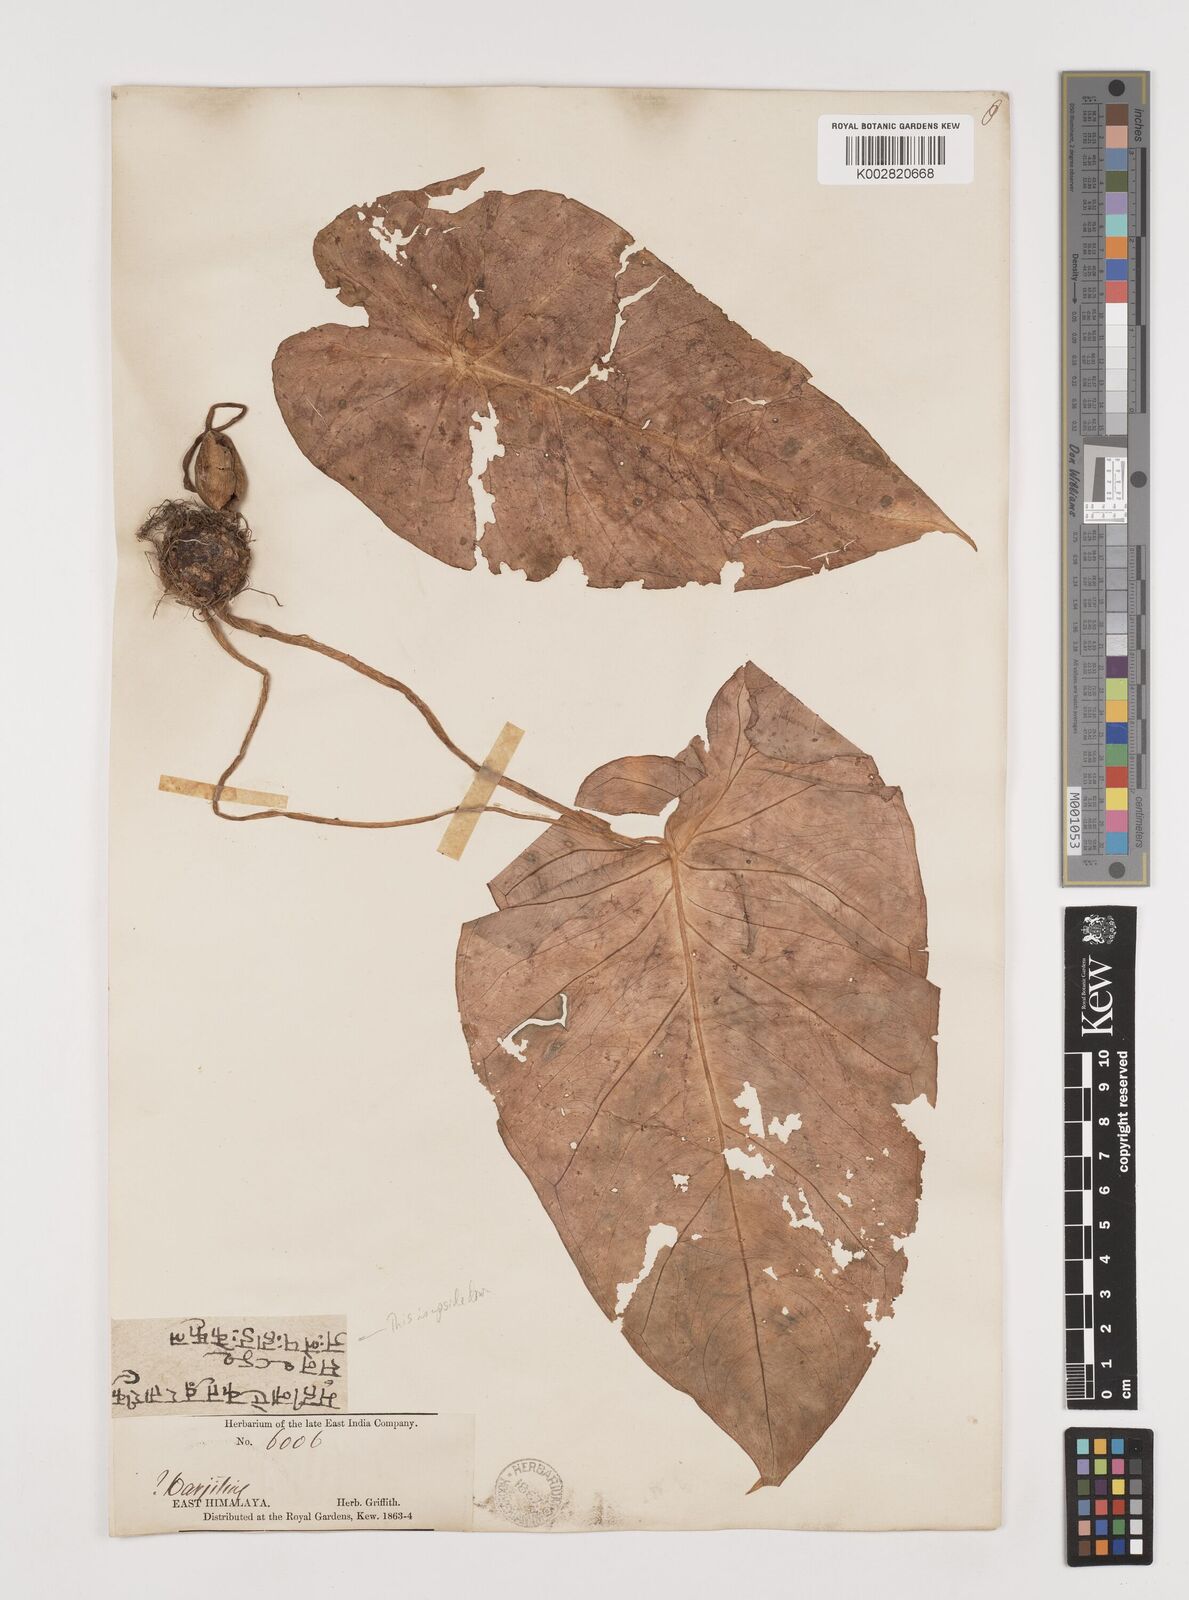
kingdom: Plantae
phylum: Tracheophyta
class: Liliopsida
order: Alismatales
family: Araceae
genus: Remusatia
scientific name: Remusatia pumila
